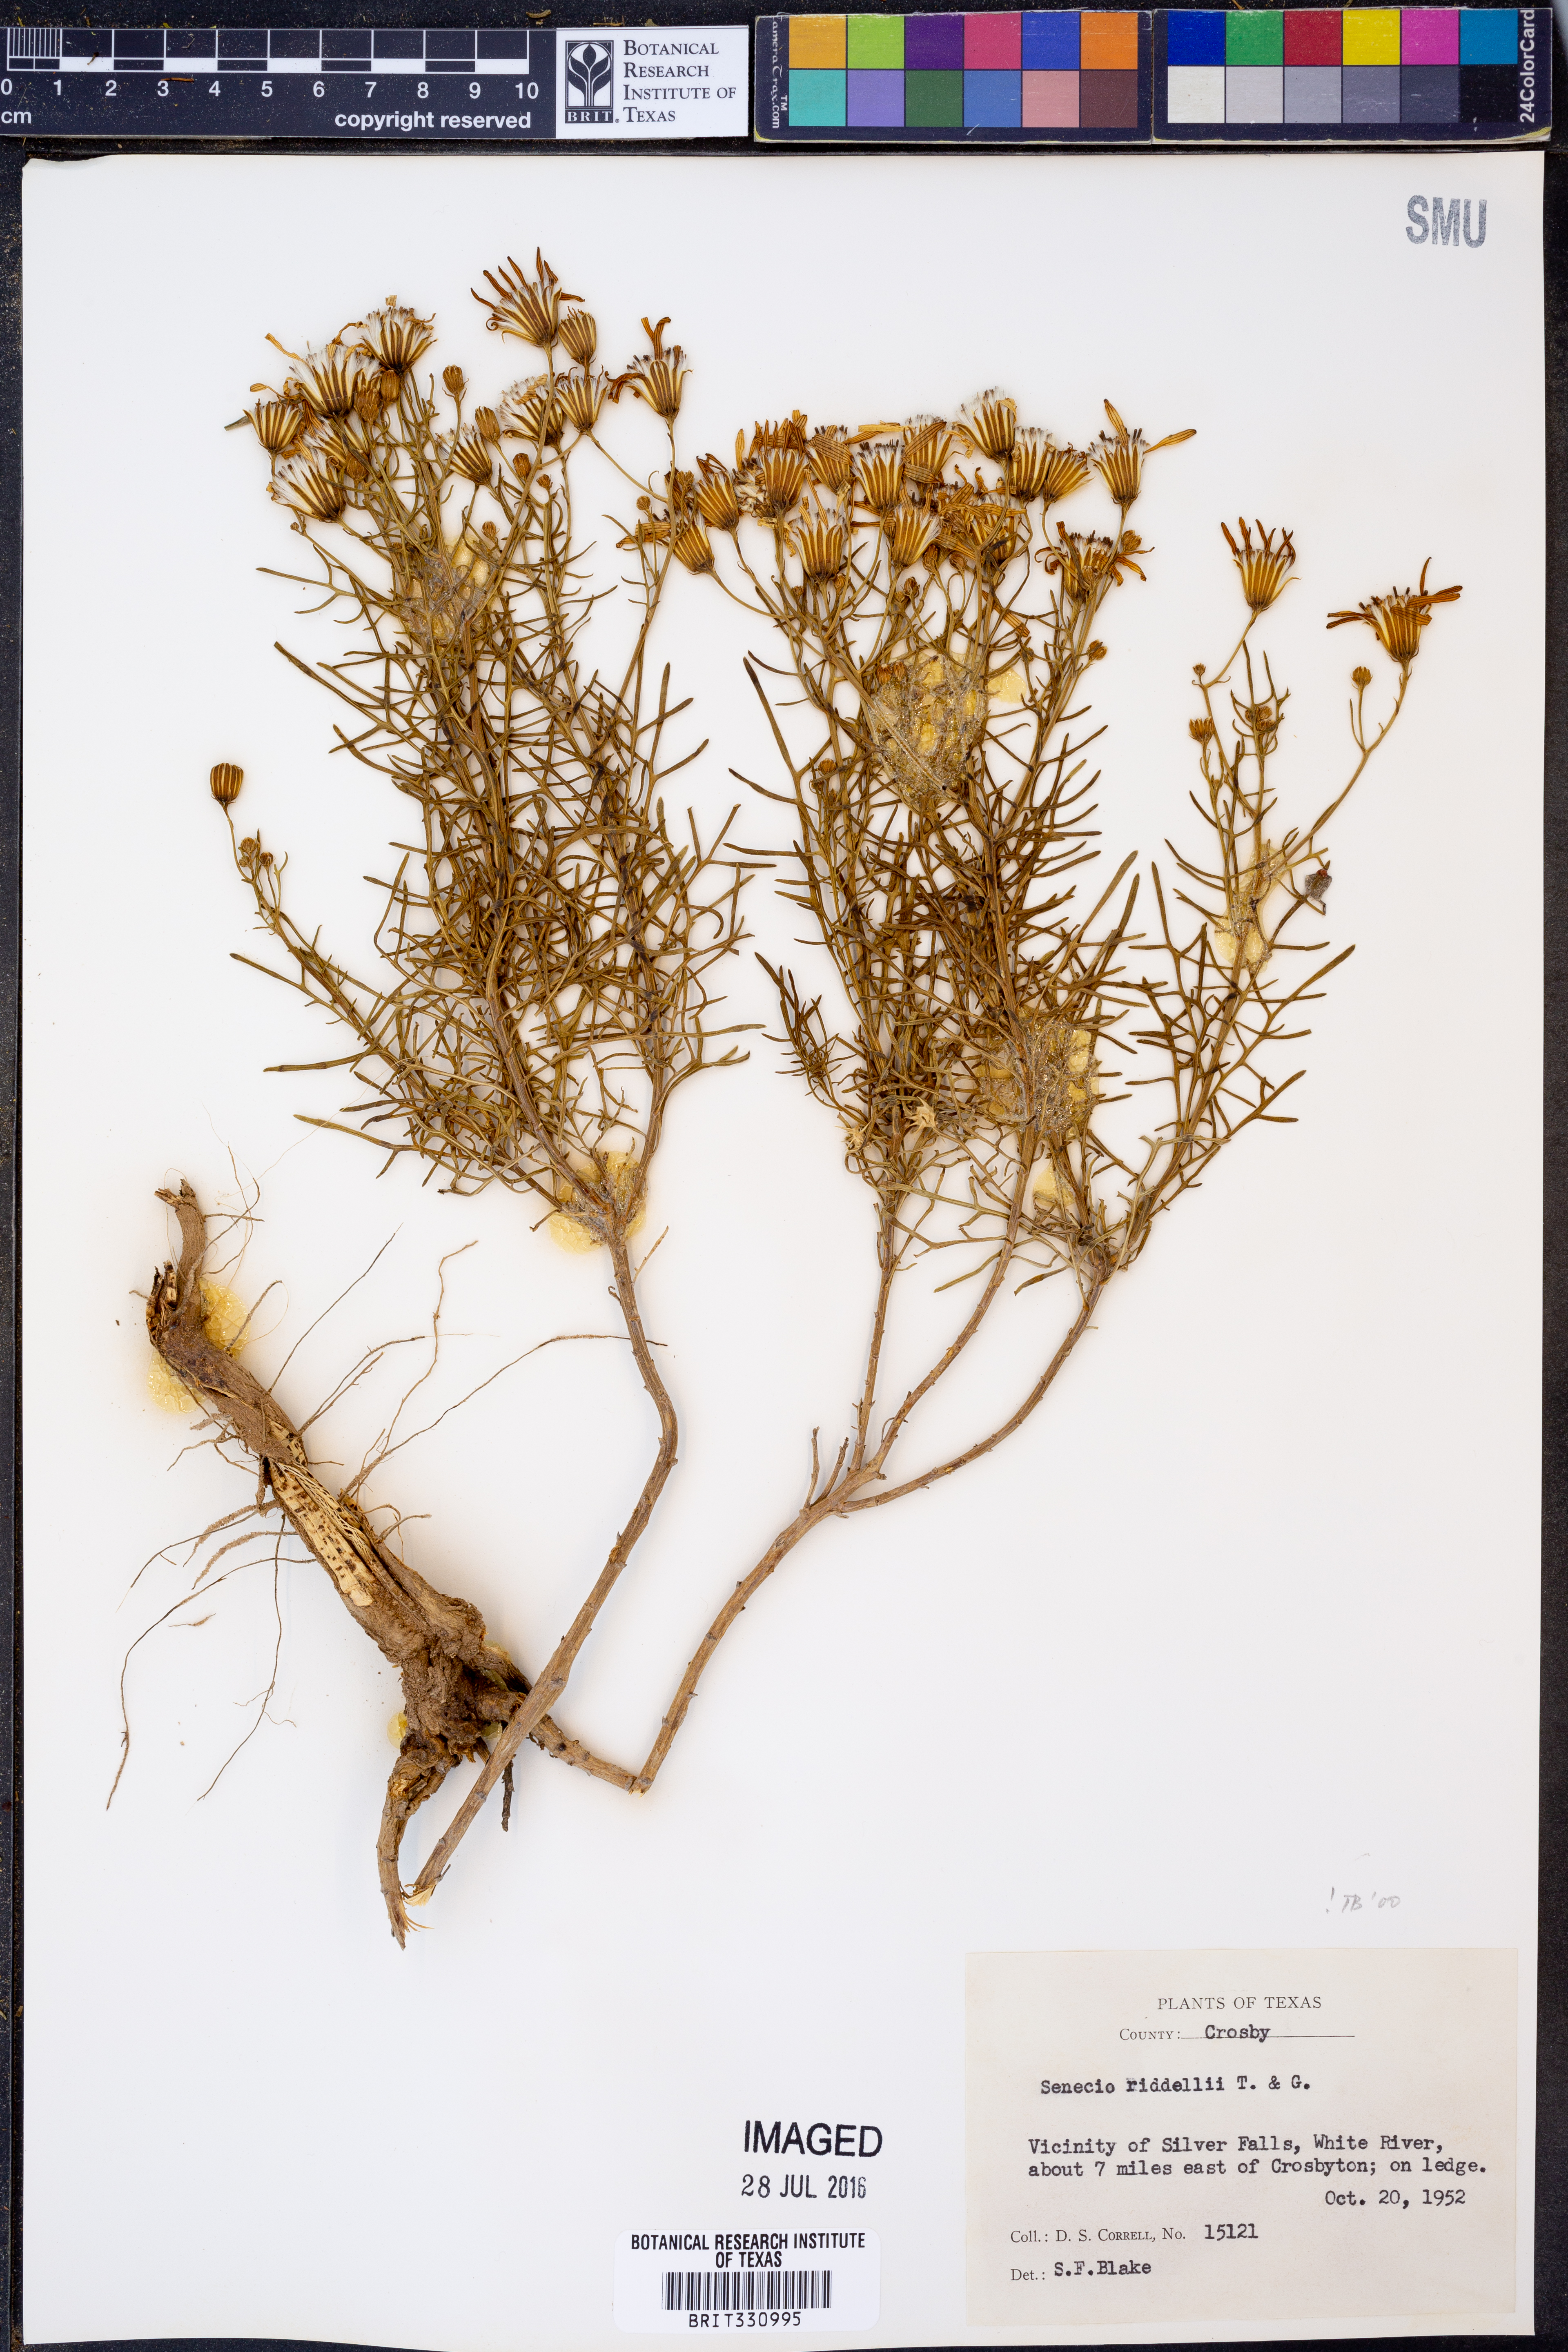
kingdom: Plantae
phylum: Tracheophyta
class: Magnoliopsida
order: Asterales
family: Asteraceae
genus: Senecio
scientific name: Senecio riddellii
